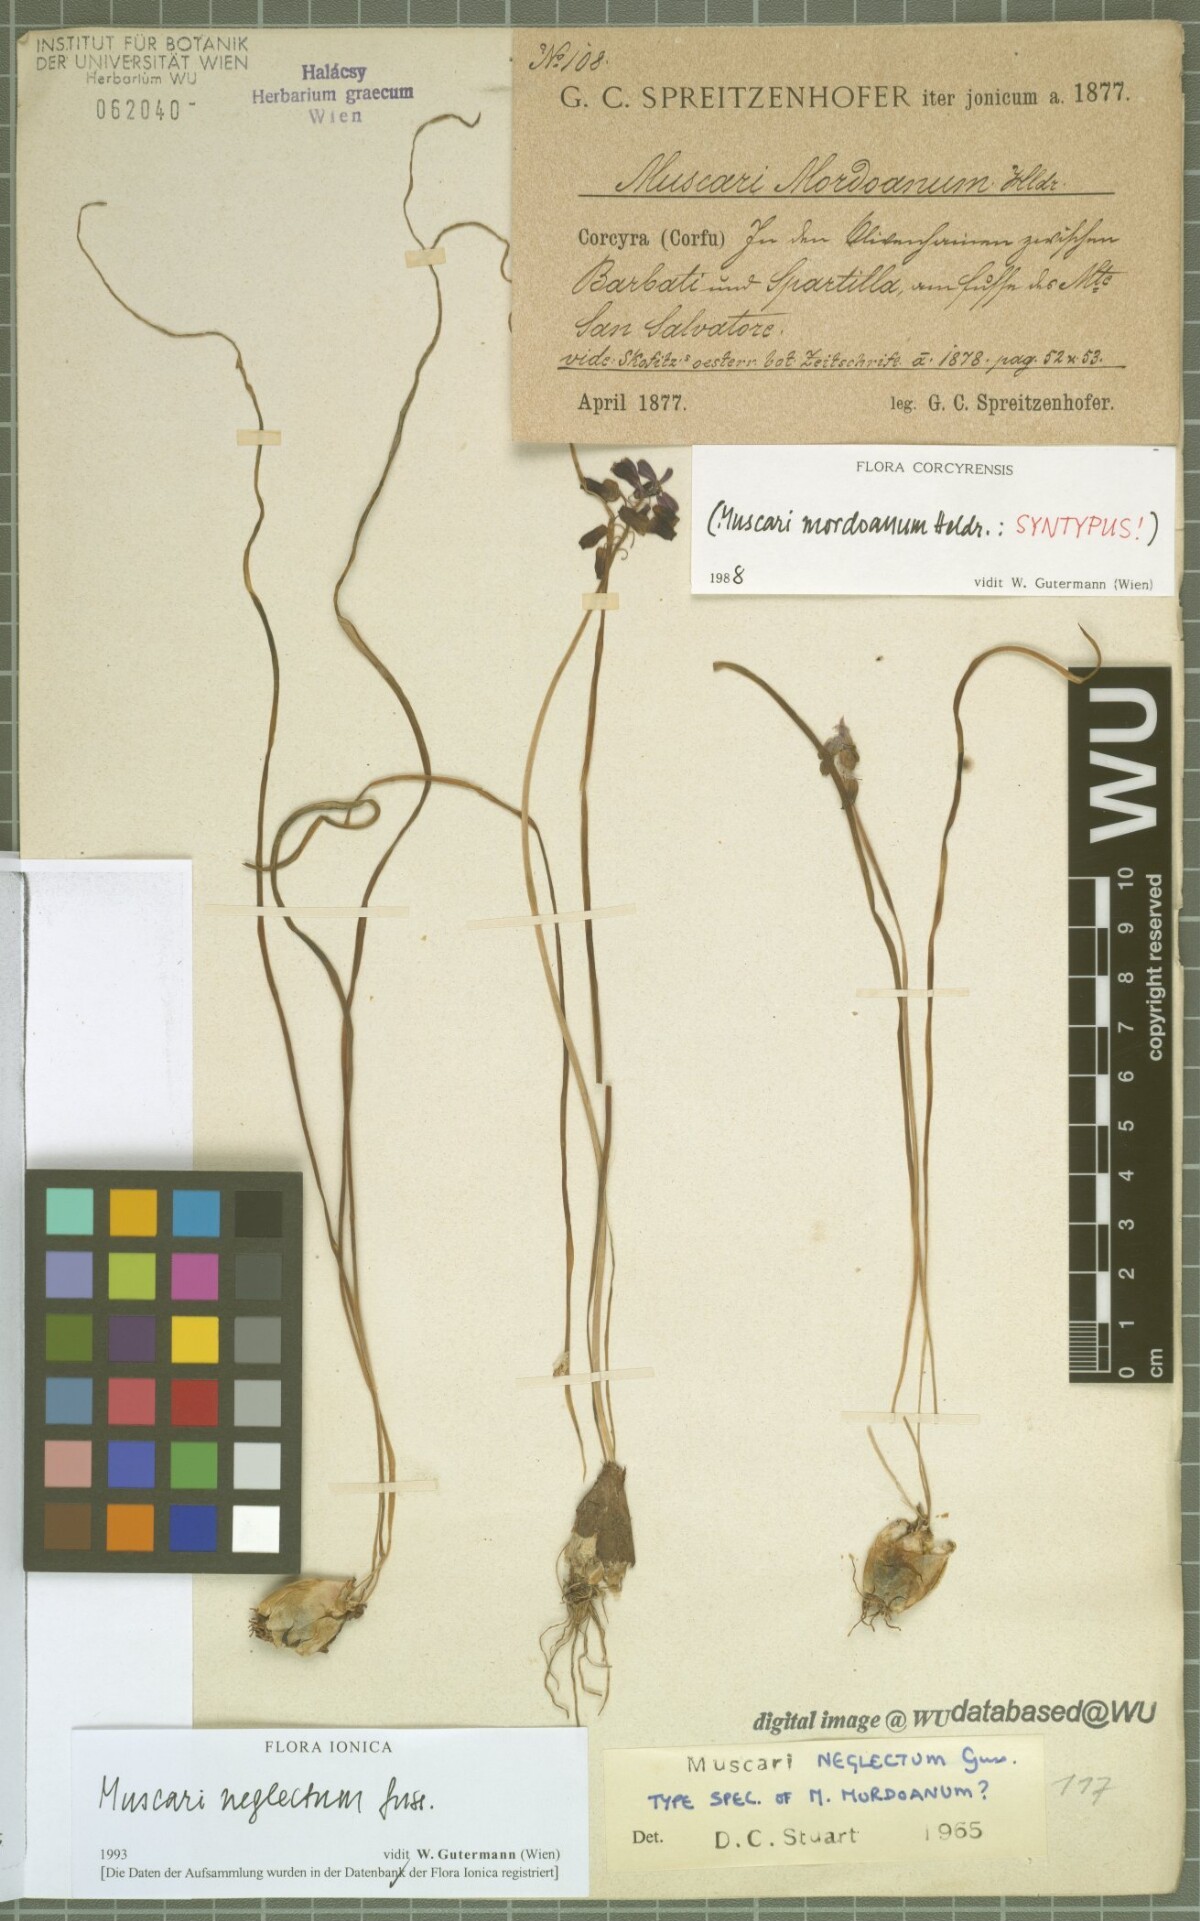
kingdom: Plantae
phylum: Tracheophyta
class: Liliopsida
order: Asparagales
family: Asparagaceae
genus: Muscari
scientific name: Muscari neglectum
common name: Grape-hyacinth
